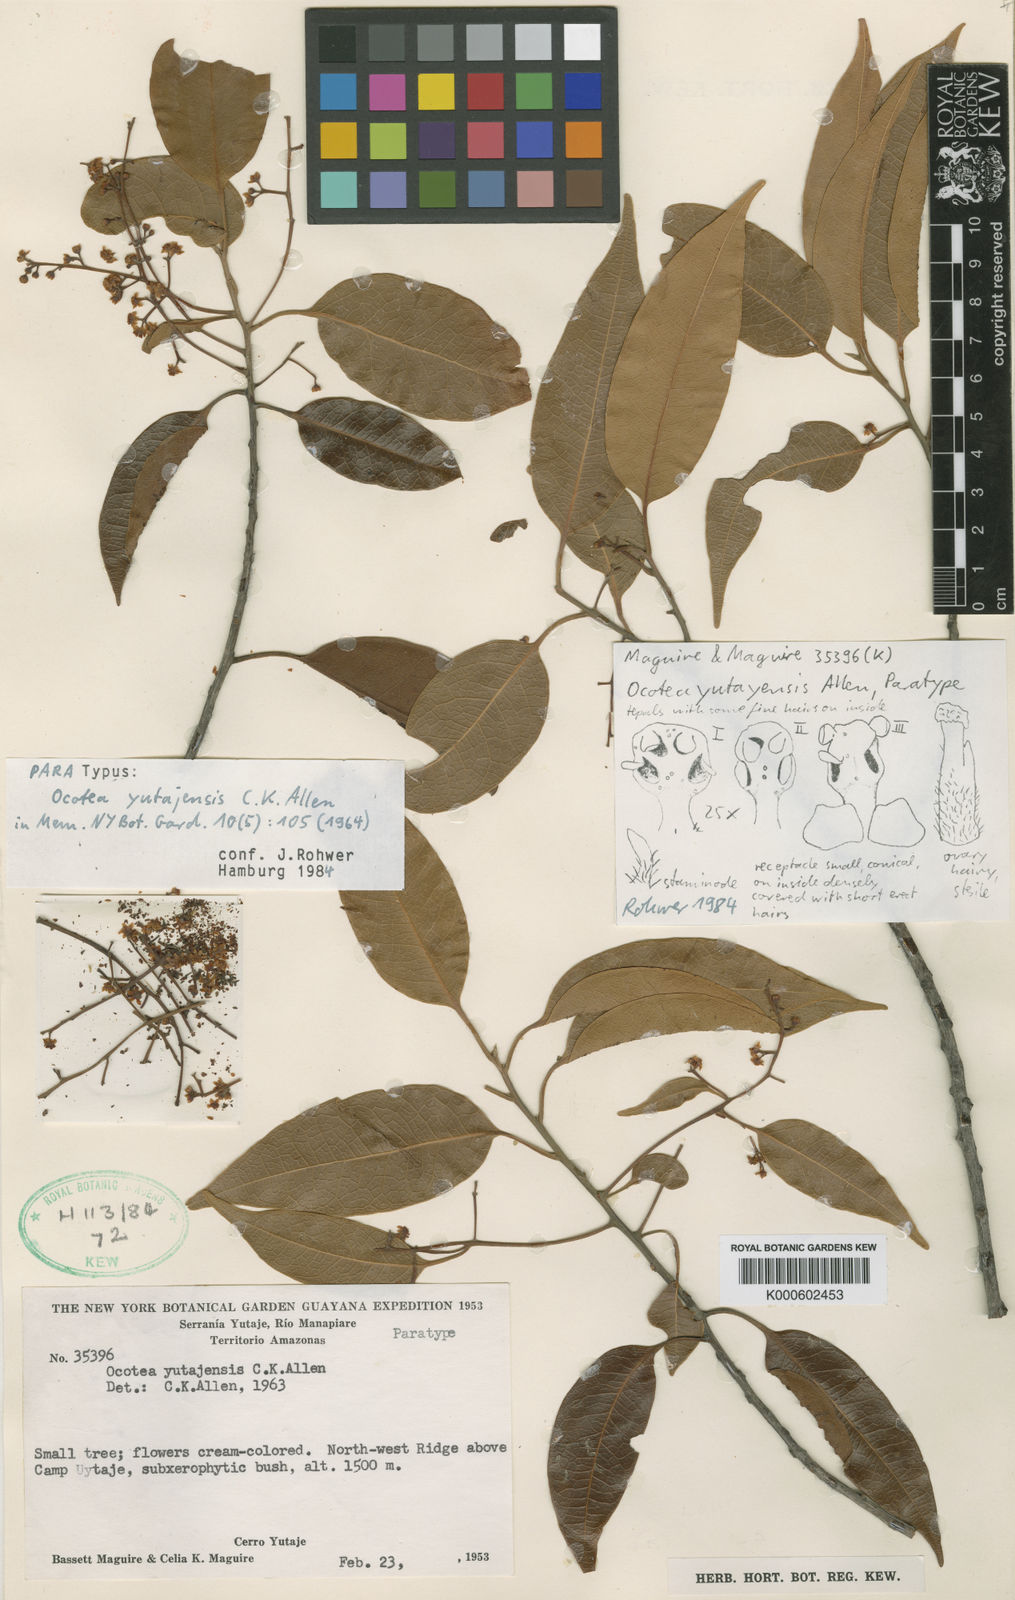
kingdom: Plantae
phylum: Tracheophyta
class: Magnoliopsida
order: Laurales
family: Lauraceae
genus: Ocotea
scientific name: Ocotea yutajensis
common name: Yutaje ocotea
